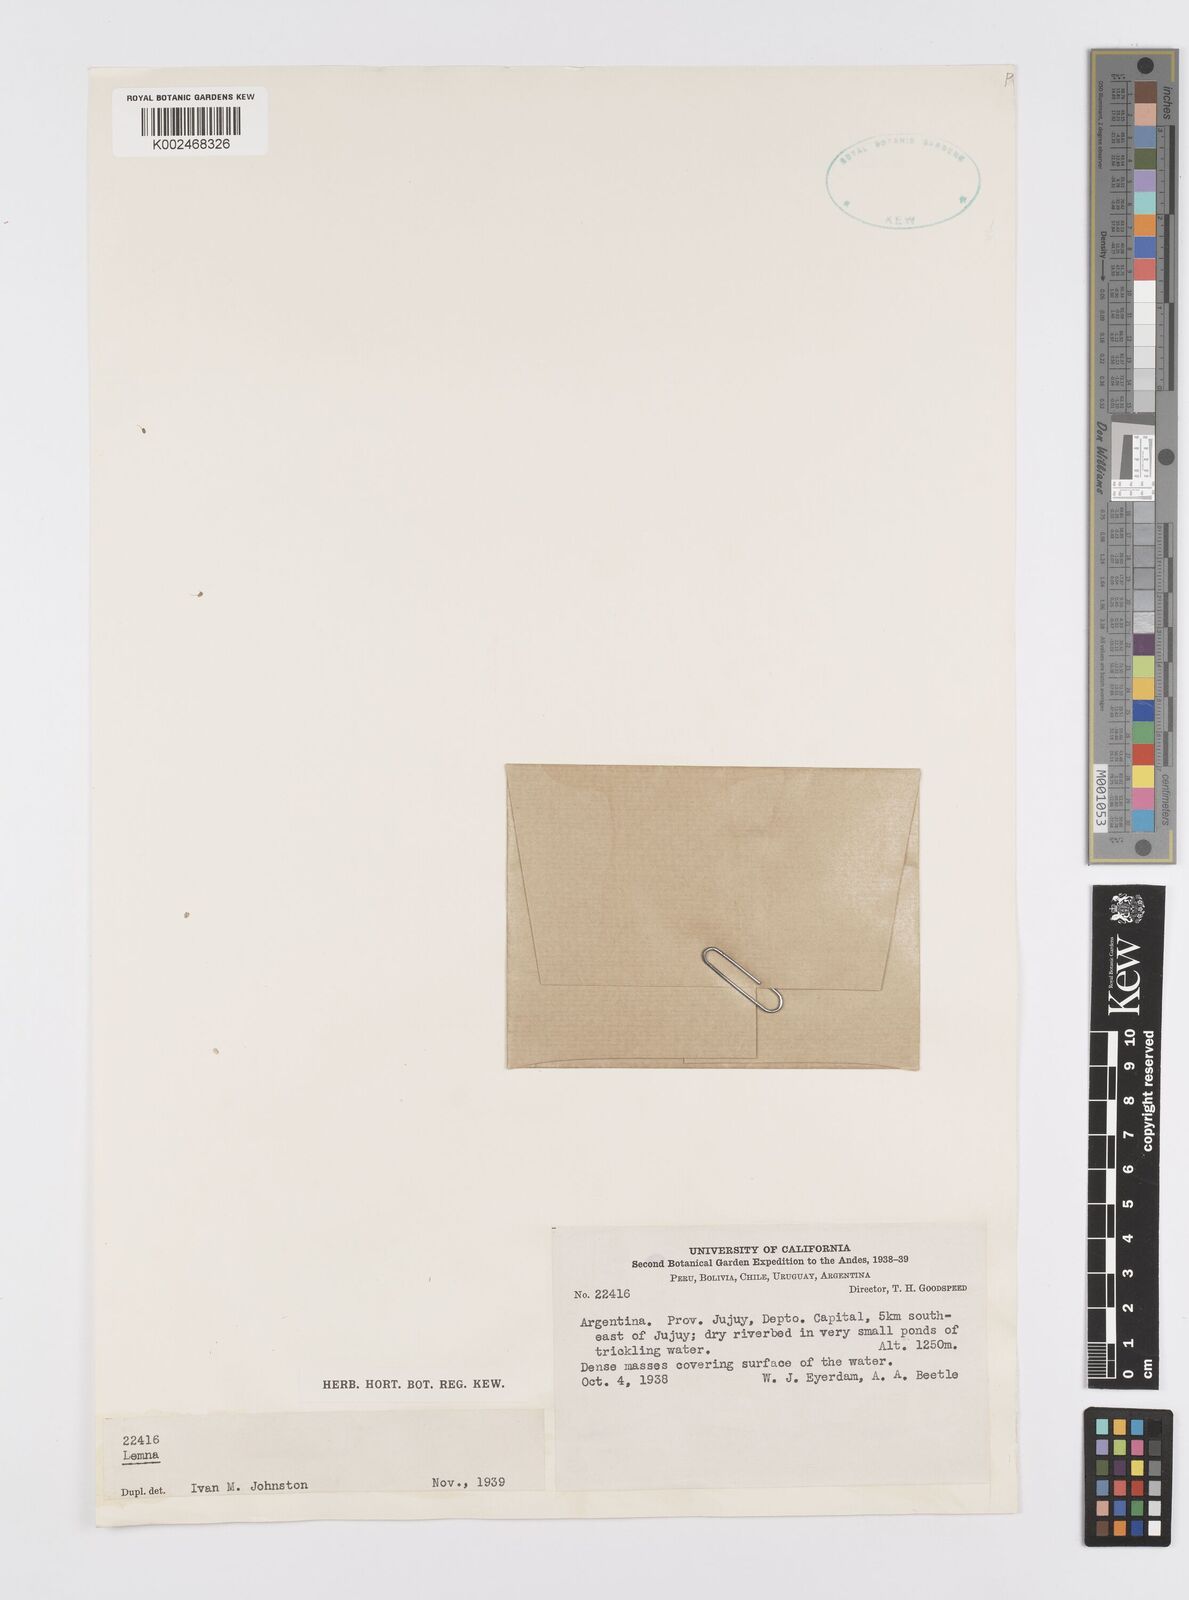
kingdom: Plantae
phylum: Tracheophyta
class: Liliopsida
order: Alismatales
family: Araceae
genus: Lemna
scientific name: Lemna
